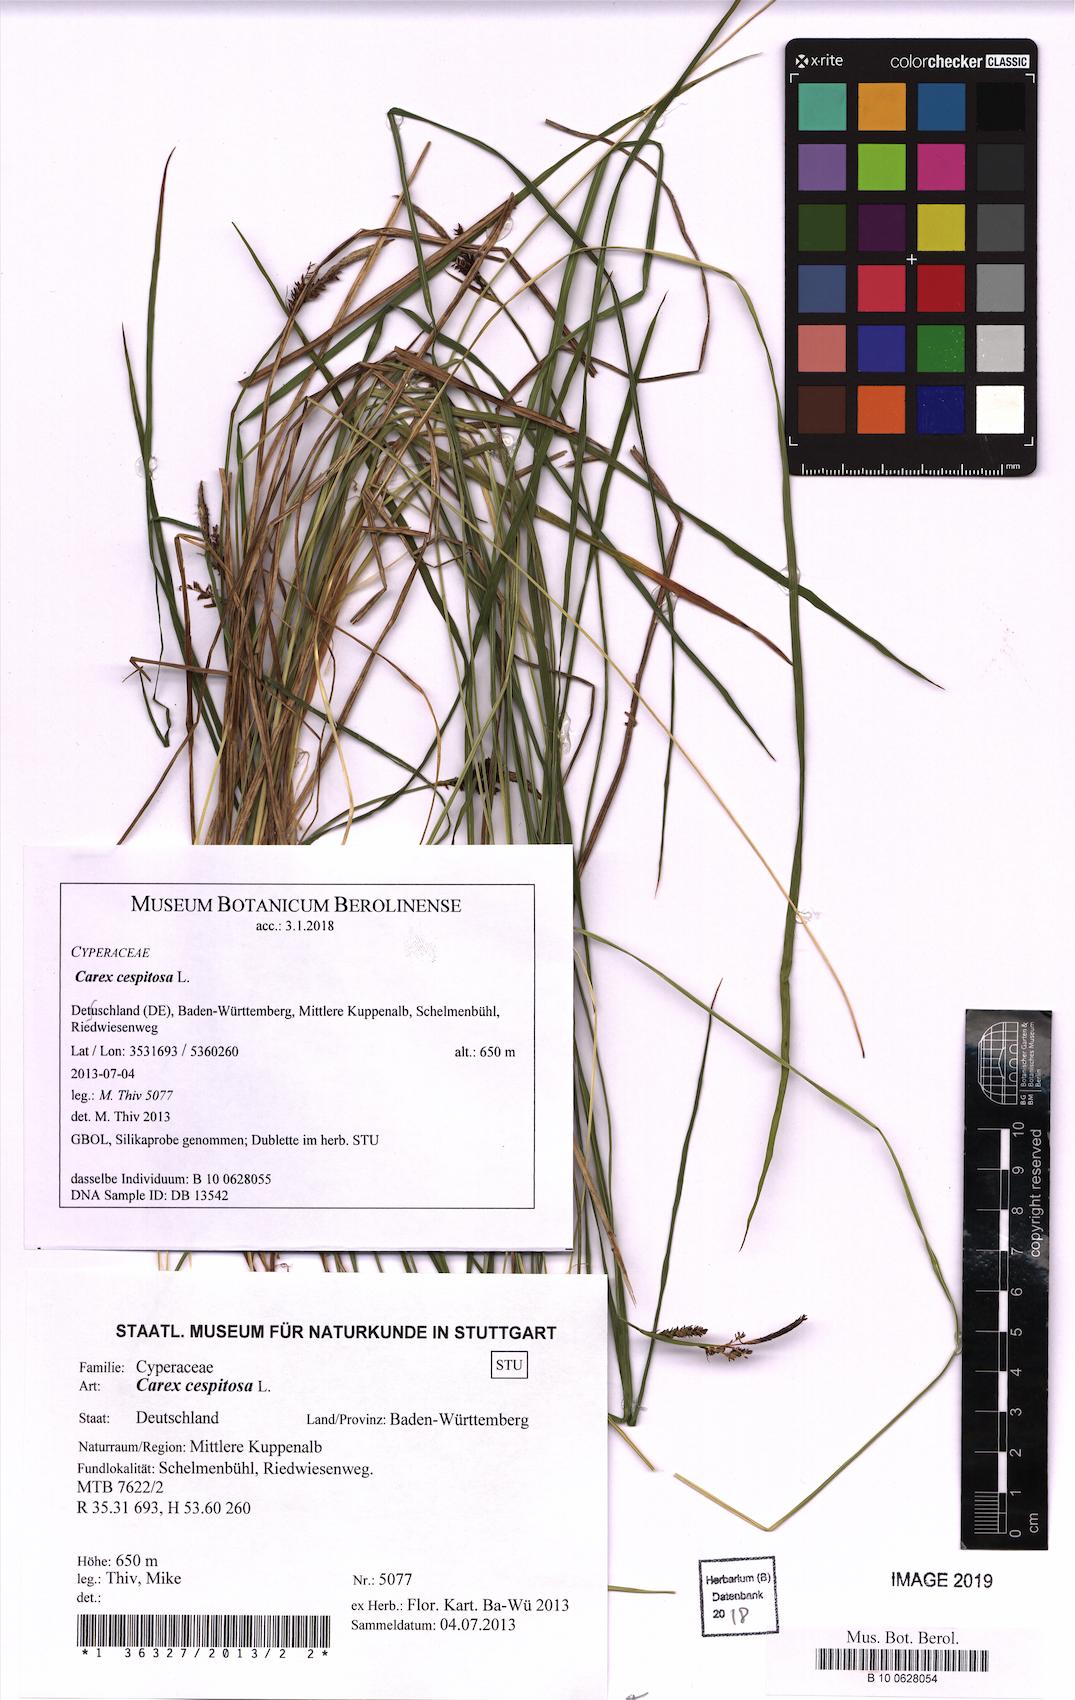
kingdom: Plantae
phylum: Tracheophyta
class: Liliopsida
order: Poales
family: Cyperaceae
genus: Carex
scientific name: Carex cespitosa
